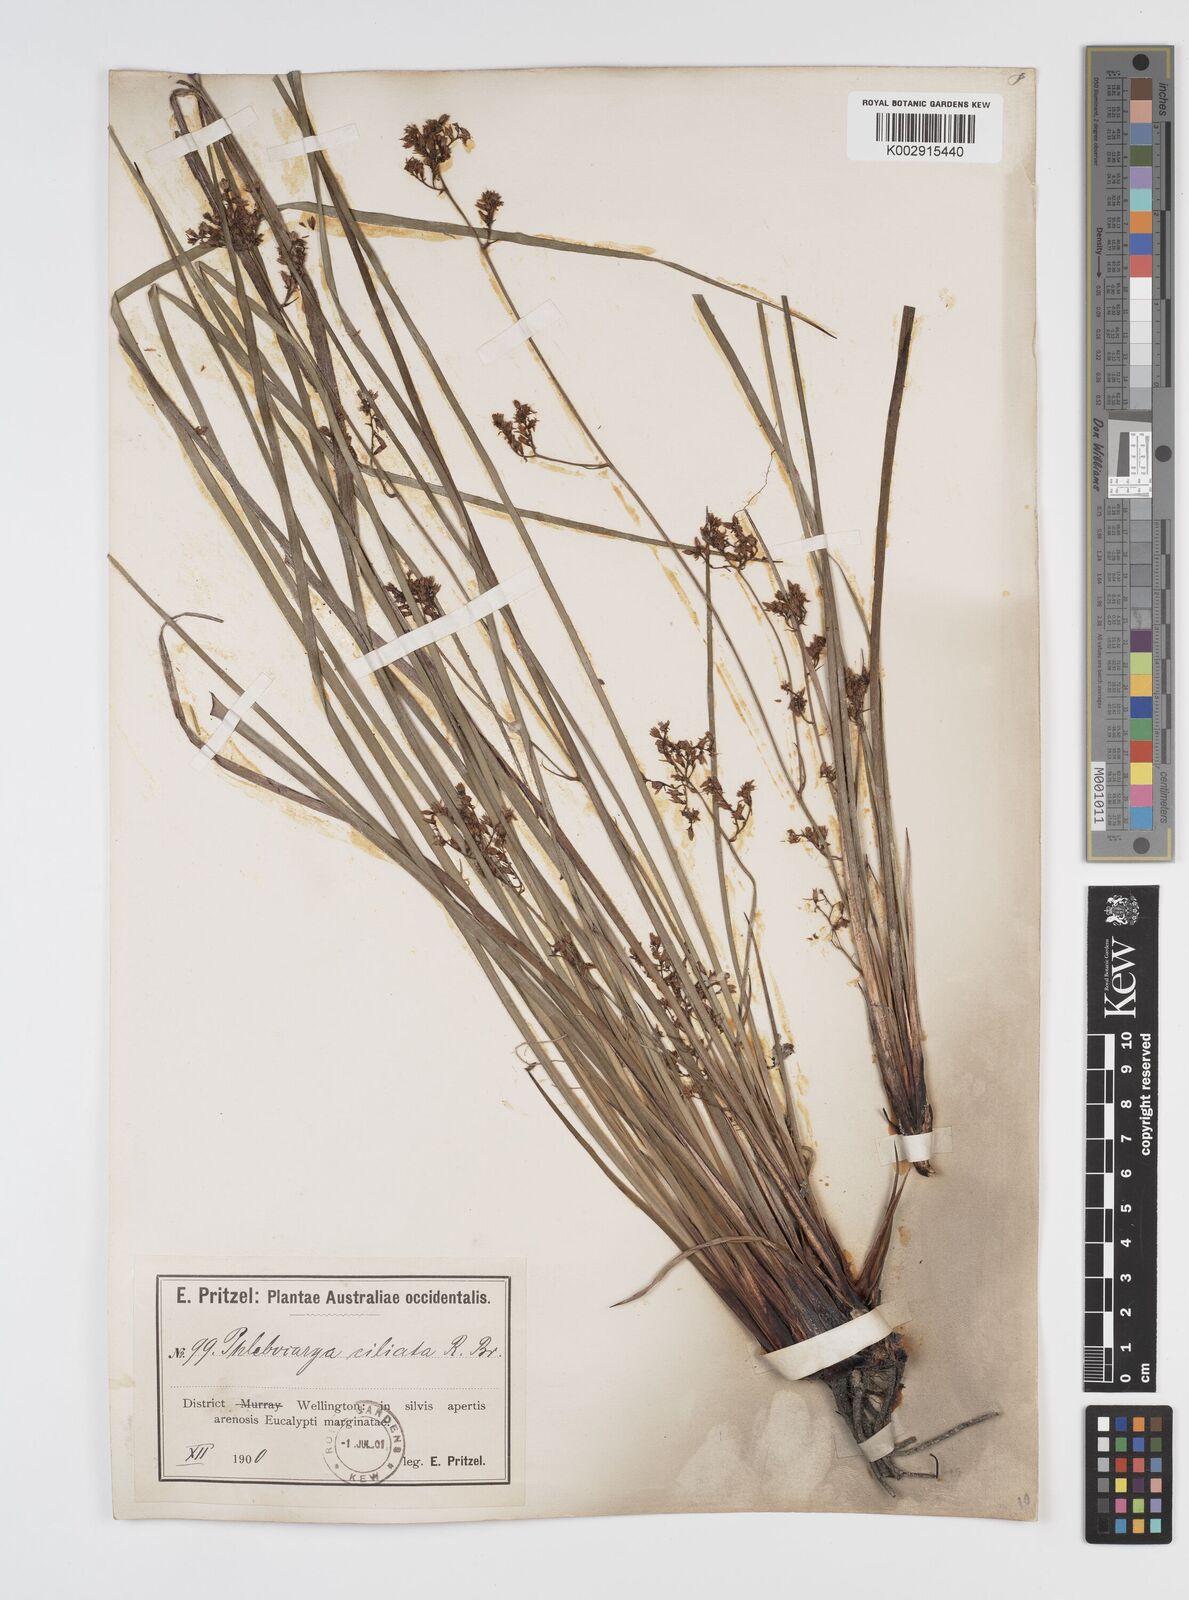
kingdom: Plantae
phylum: Tracheophyta
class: Liliopsida
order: Commelinales
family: Haemodoraceae
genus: Phlebocarya
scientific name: Phlebocarya ciliata
